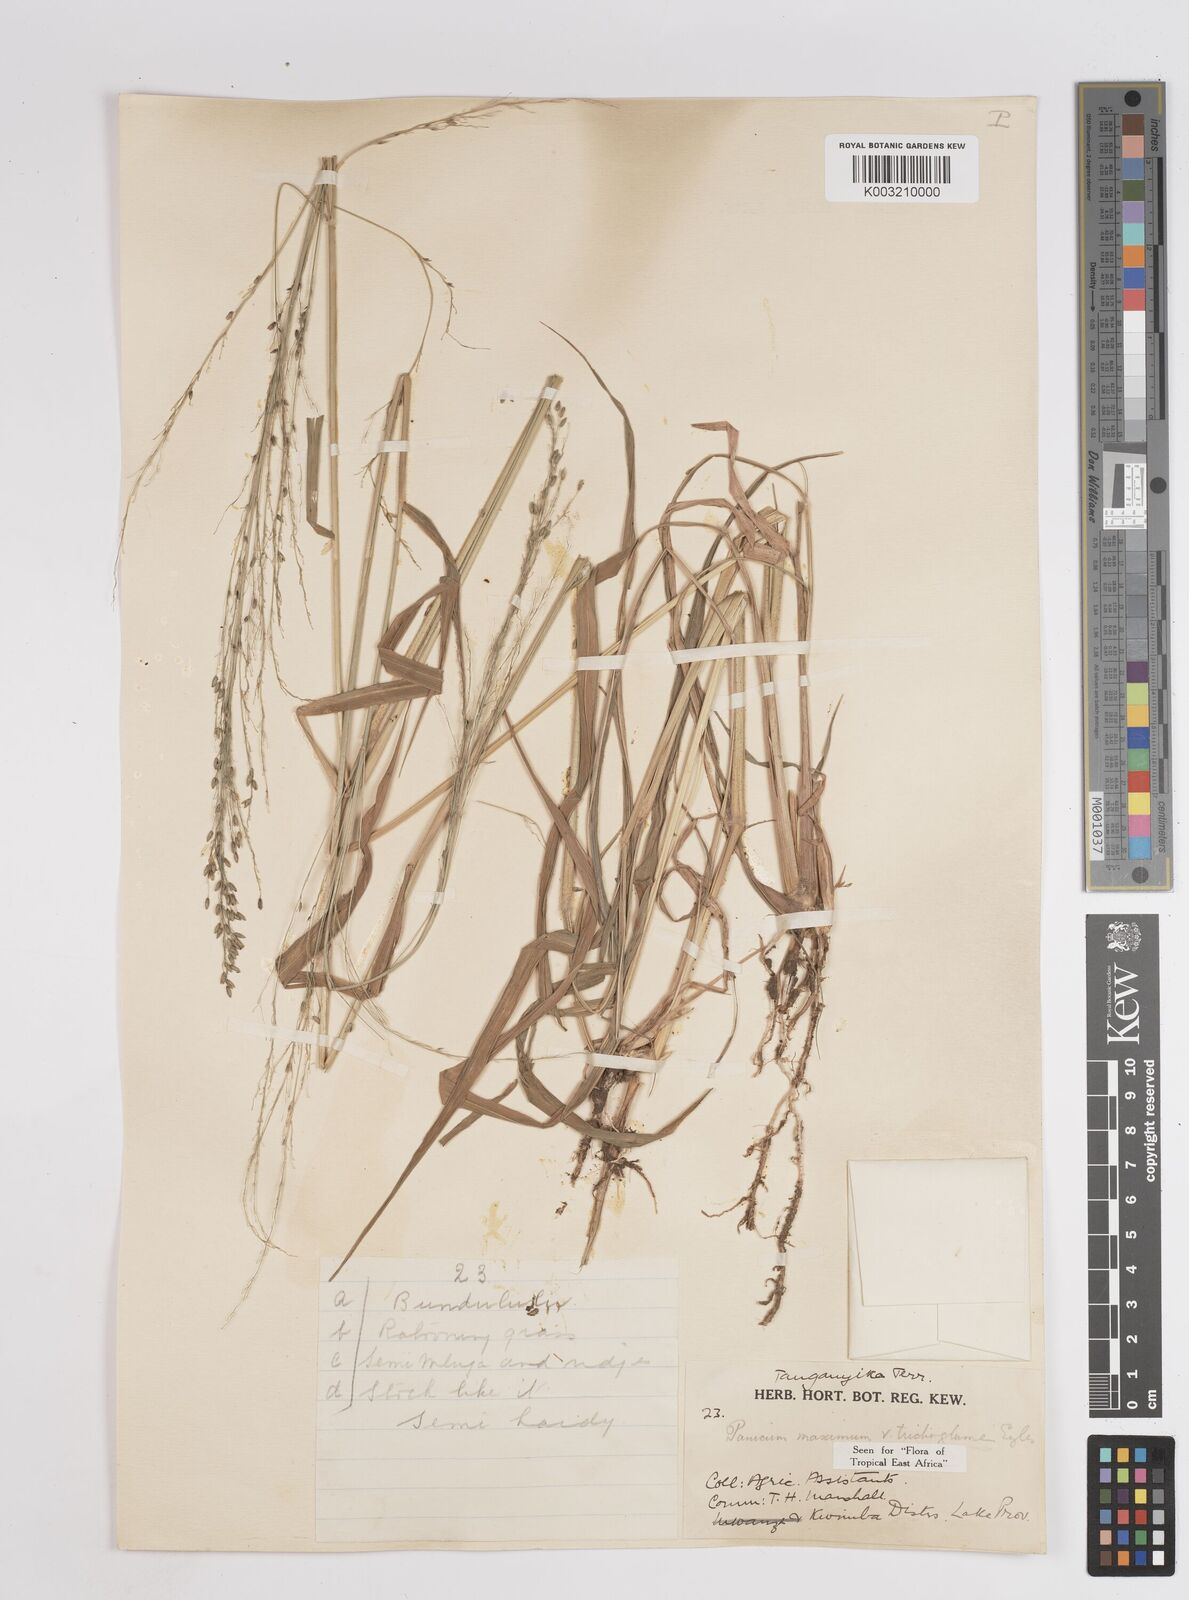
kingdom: Plantae
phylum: Tracheophyta
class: Liliopsida
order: Poales
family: Poaceae
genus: Megathyrsus
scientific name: Megathyrsus maximus
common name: Guineagrass
